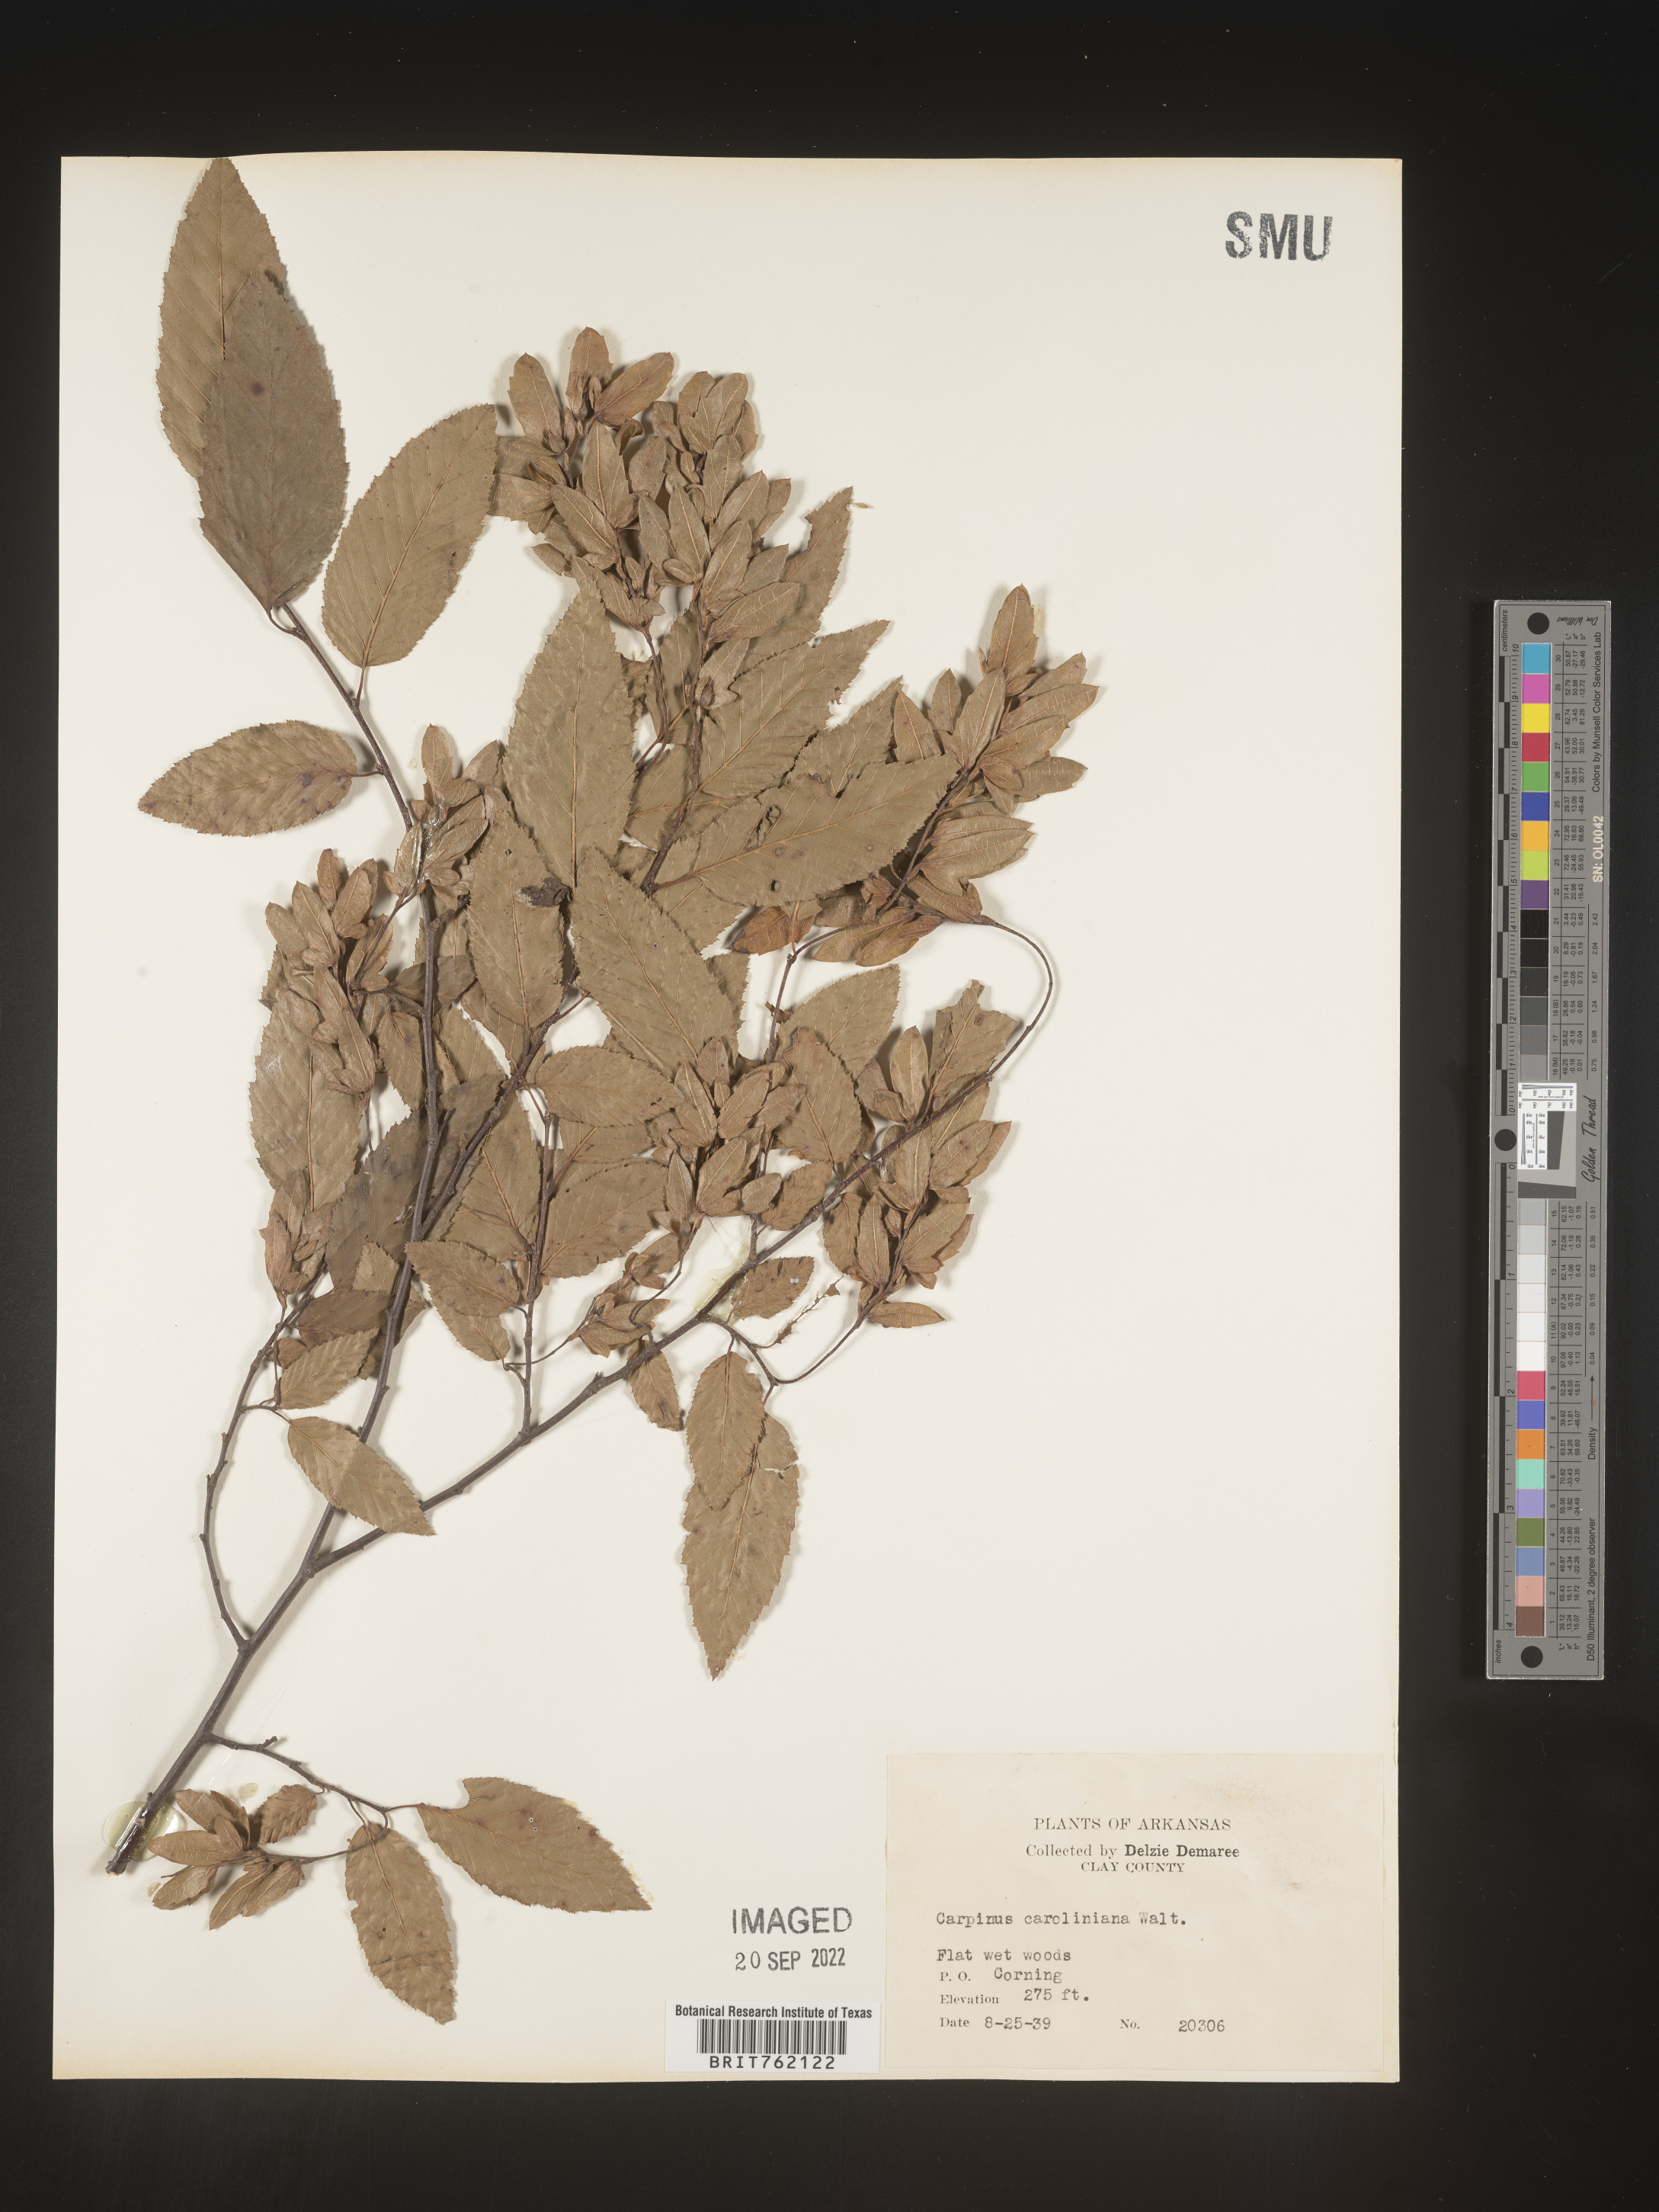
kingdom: Plantae
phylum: Tracheophyta
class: Magnoliopsida
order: Fagales
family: Betulaceae
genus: Carpinus
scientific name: Carpinus caroliniana
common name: American hornbeam
